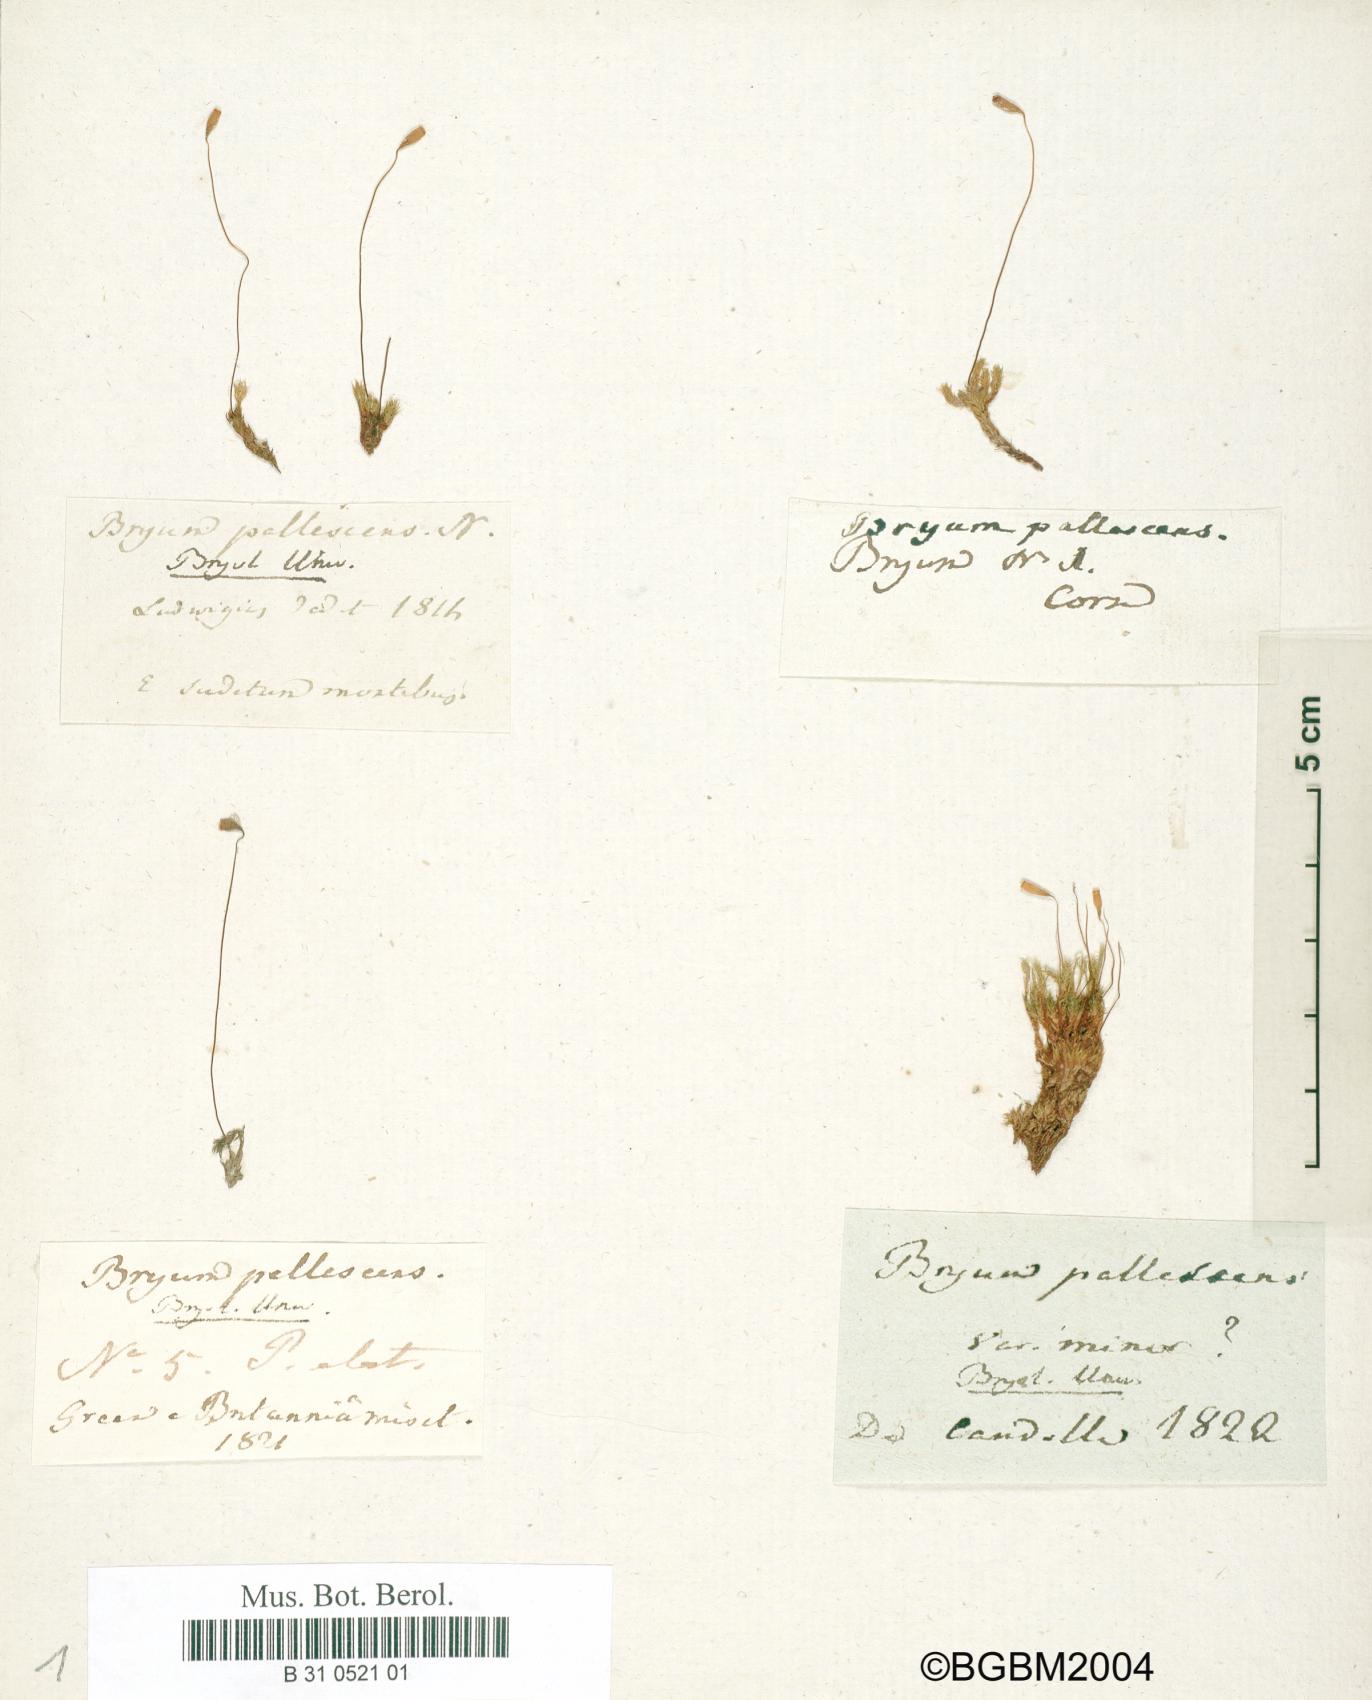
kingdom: Plantae
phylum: Bryophyta
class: Bryopsida
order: Bryales
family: Bryaceae
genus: Ptychostomum
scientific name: Ptychostomum pallescens
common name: Tall-clustered thread-moss
